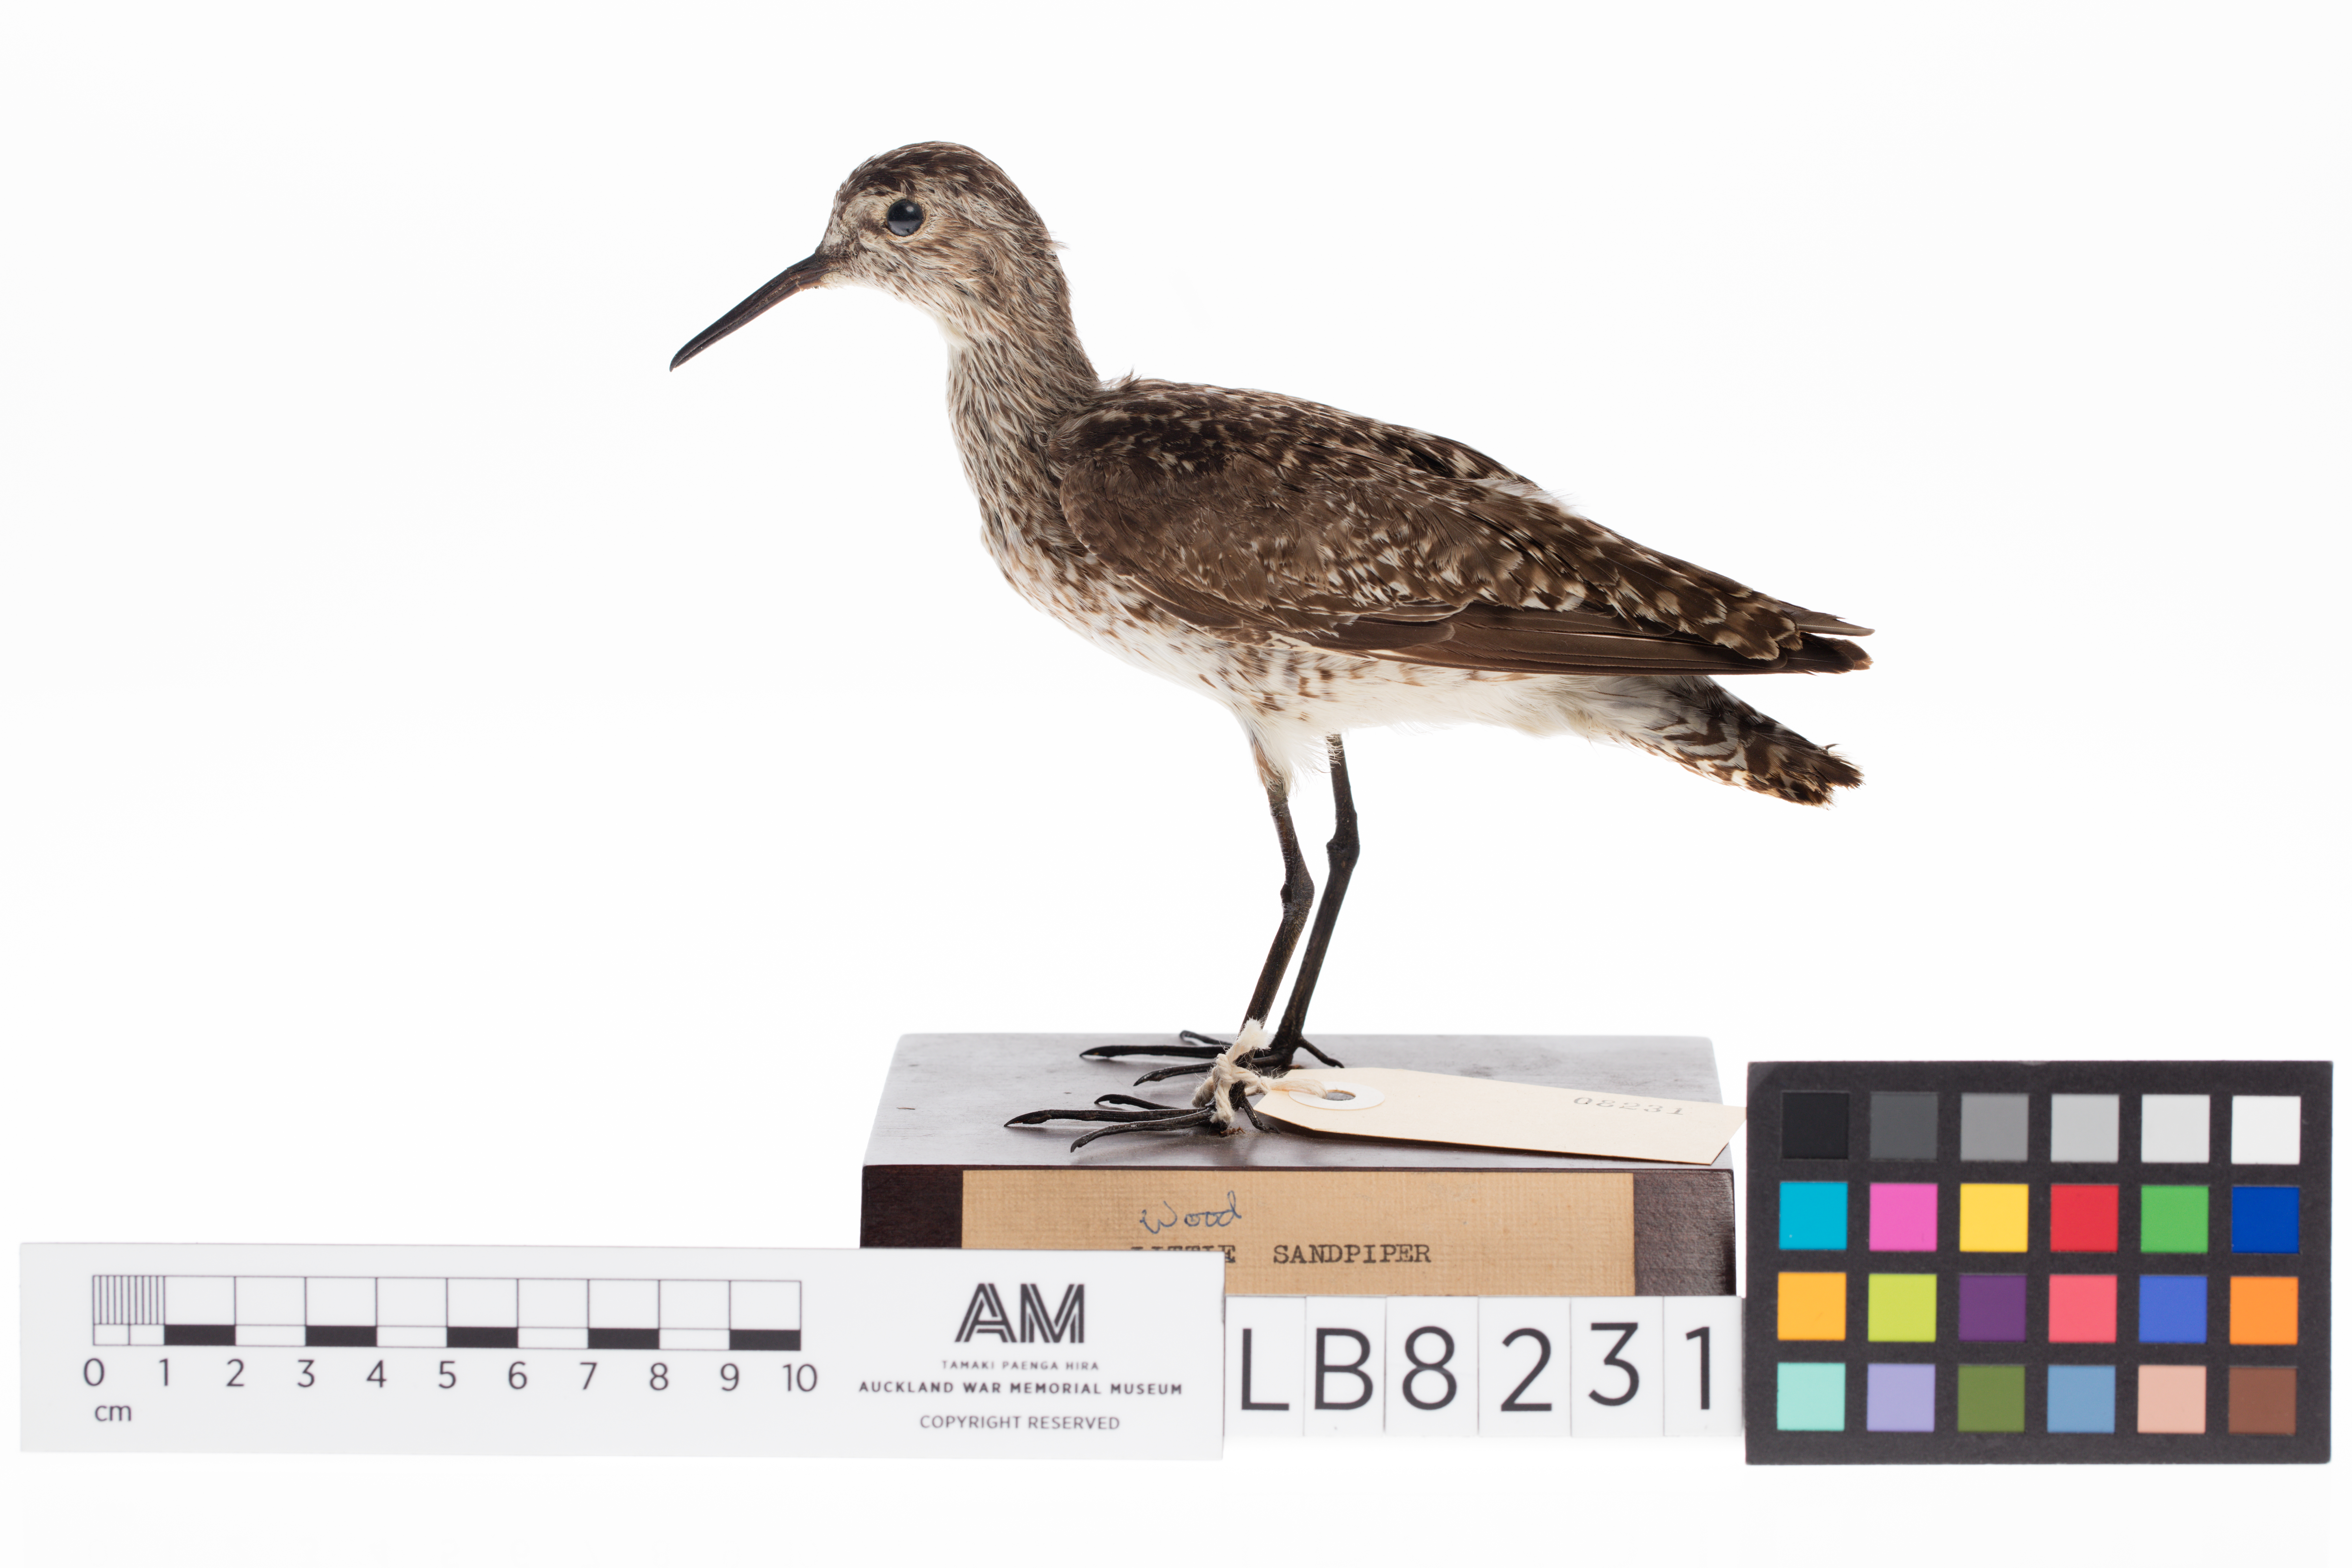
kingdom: Animalia
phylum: Chordata
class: Aves
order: Charadriiformes
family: Scolopacidae
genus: Tringa
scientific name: Tringa glareola
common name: Wood sandpiper
